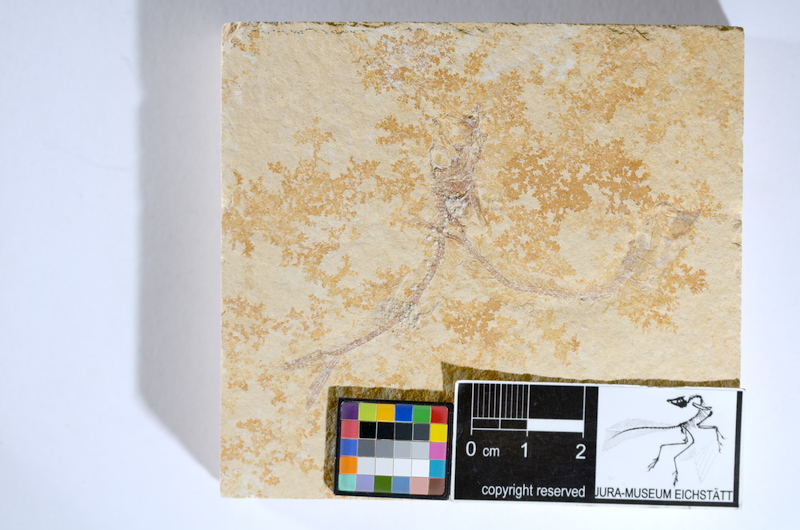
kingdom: Animalia
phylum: Chordata
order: Salmoniformes
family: Orthogonikleithridae
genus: Leptolepides
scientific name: Leptolepides sprattiformis
